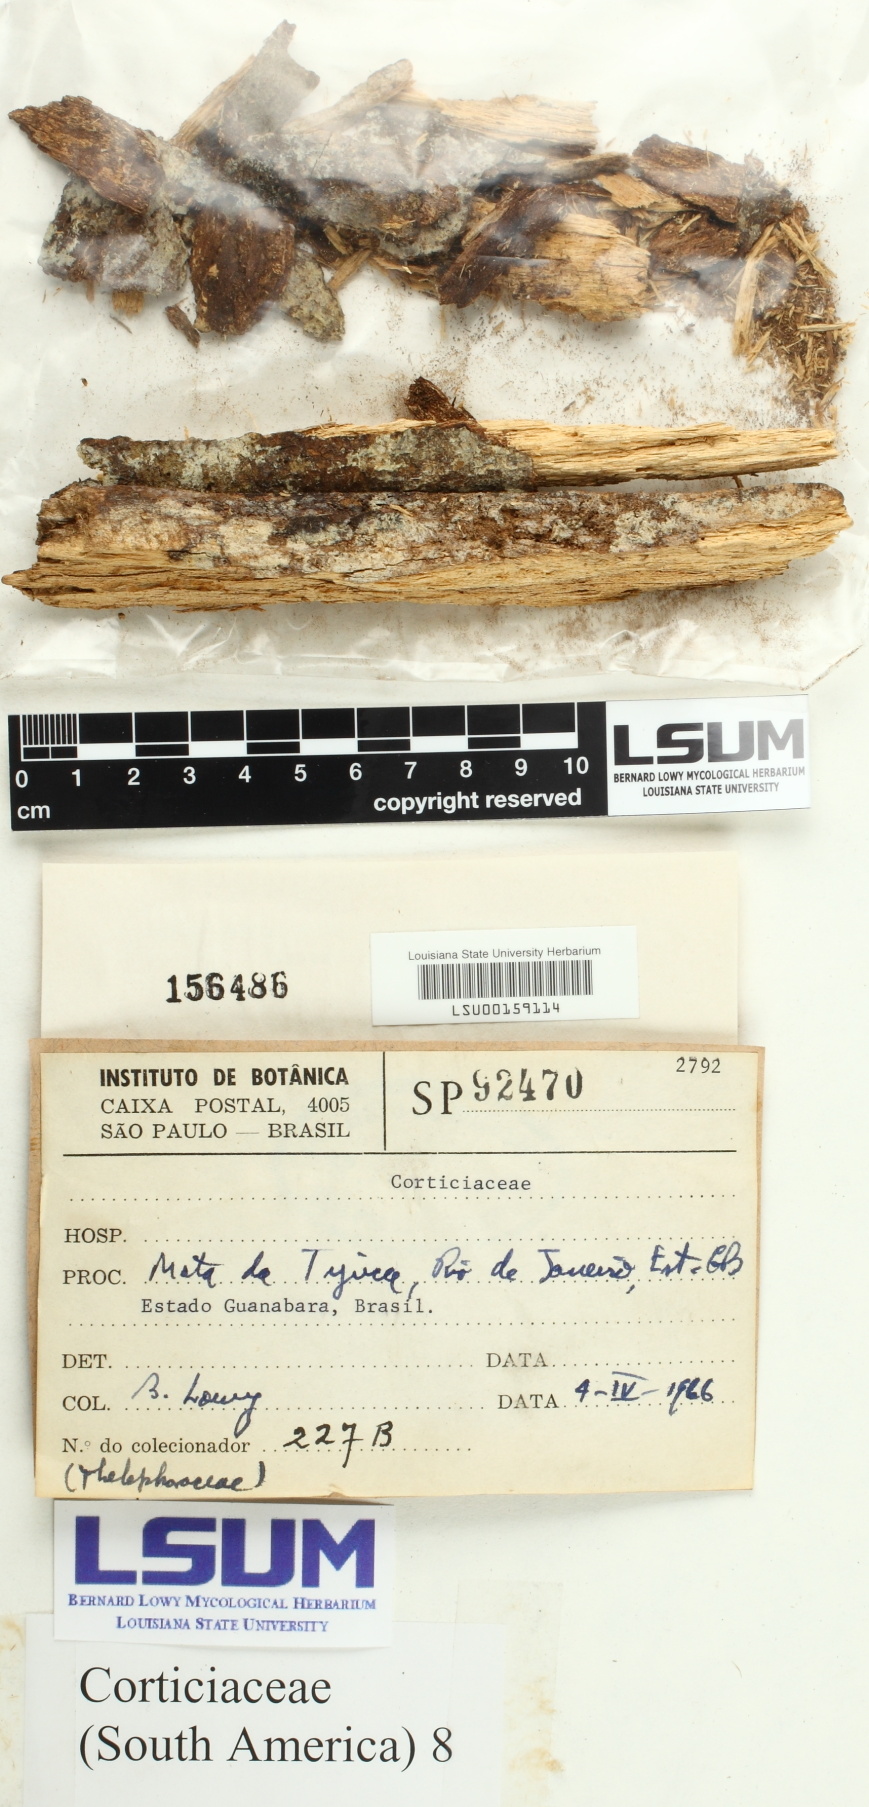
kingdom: Fungi
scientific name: Fungi
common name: Fungi
